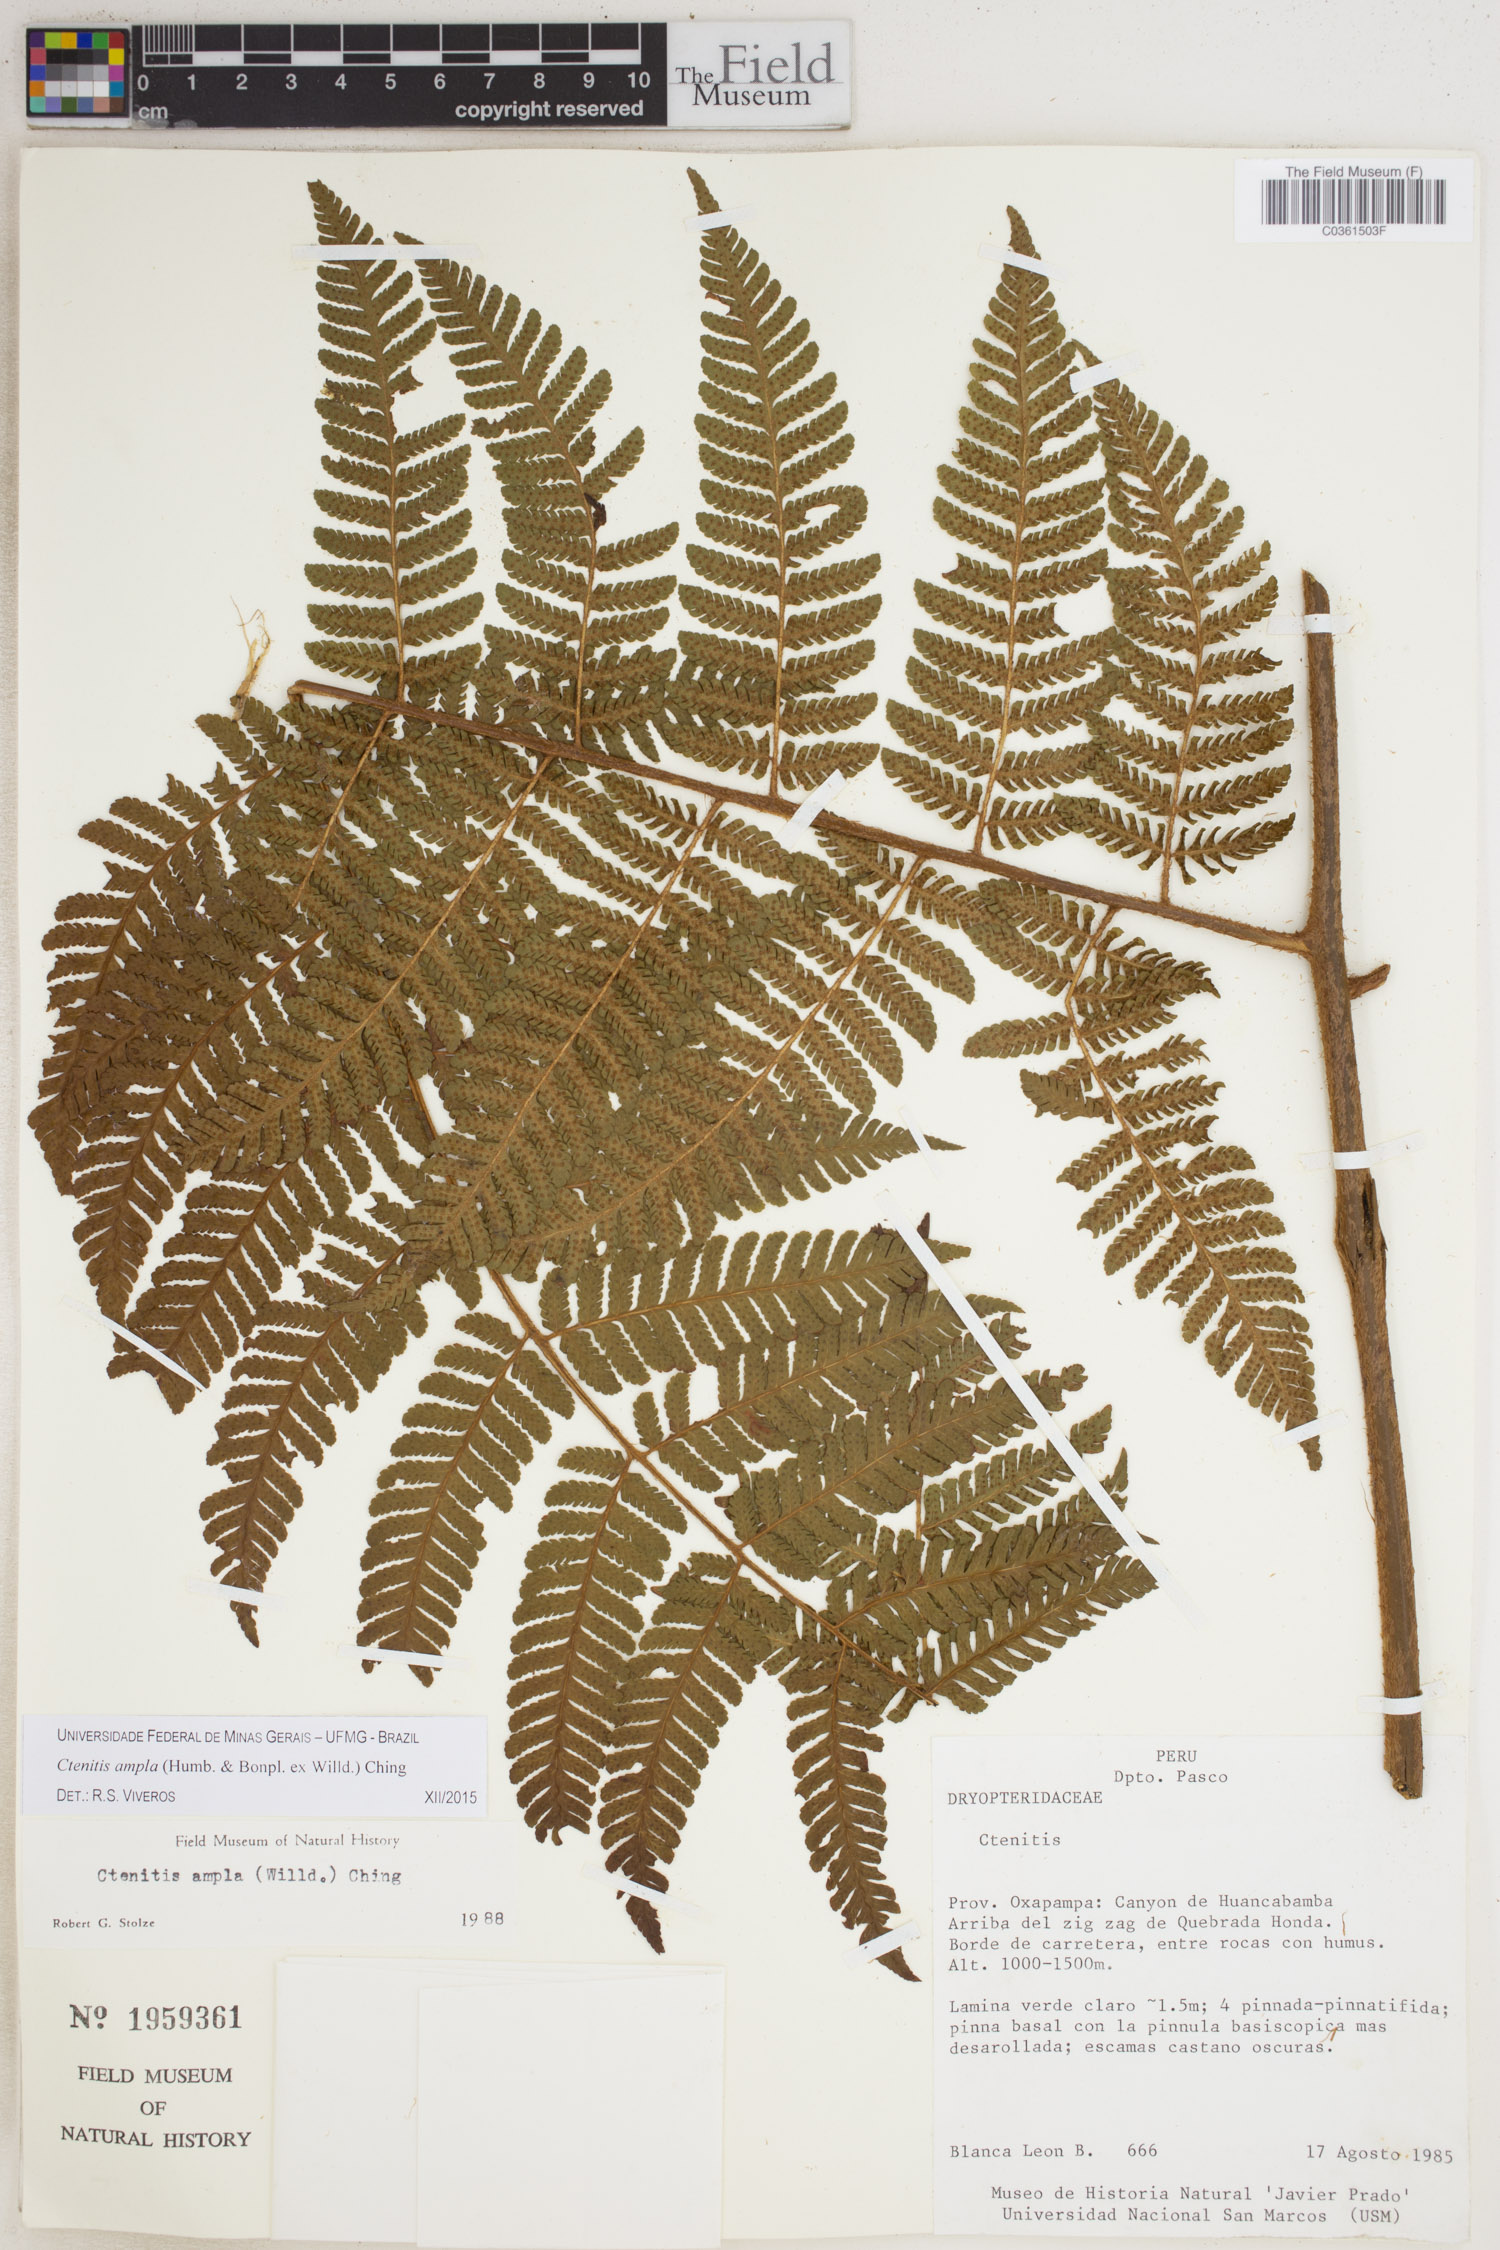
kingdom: Plantae
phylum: Tracheophyta
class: Polypodiopsida
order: Polypodiales
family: Dryopteridaceae
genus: Ctenitis
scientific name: Ctenitis sloanei
